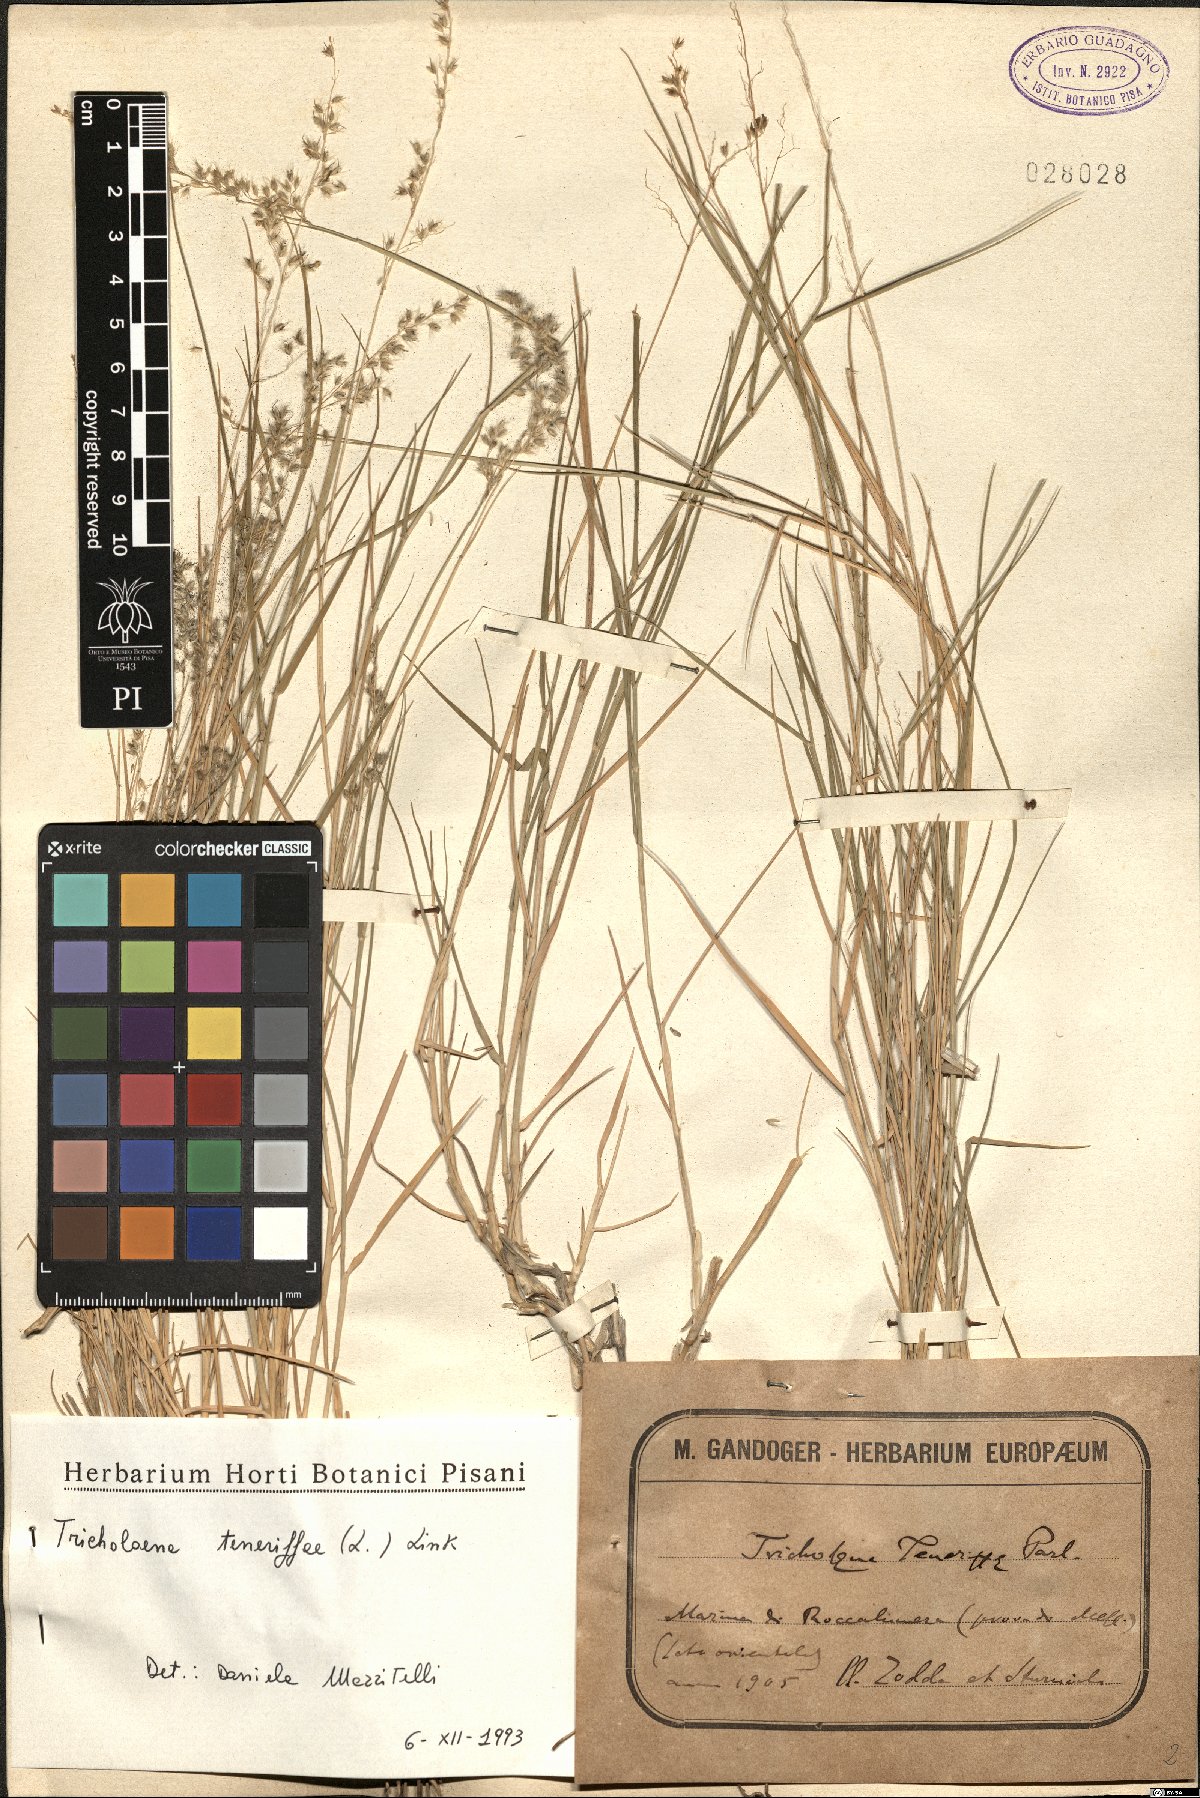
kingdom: Plantae
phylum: Tracheophyta
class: Liliopsida
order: Poales
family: Poaceae
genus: Tricholaena
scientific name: Tricholaena teneriffae
